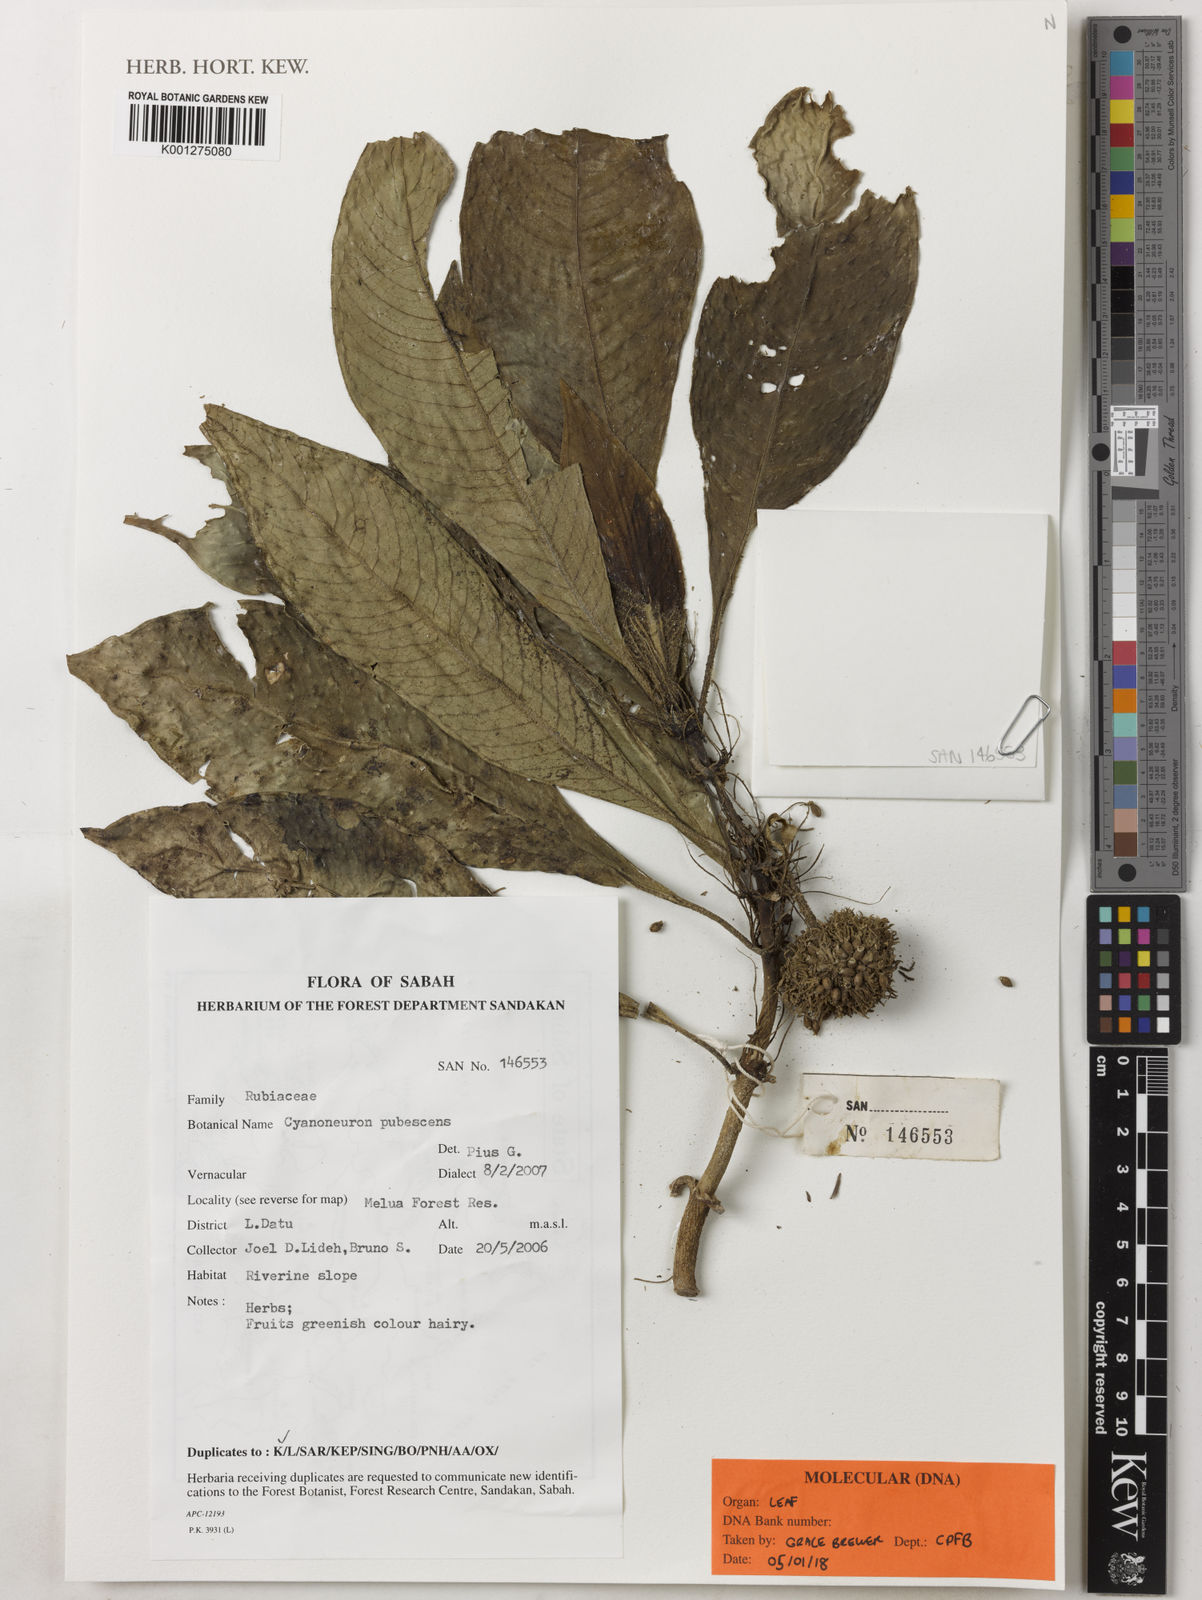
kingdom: Plantae
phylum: Tracheophyta
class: Magnoliopsida
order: Gentianales
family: Rubiaceae
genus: Cyanoneuron
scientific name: Cyanoneuron pubescens
